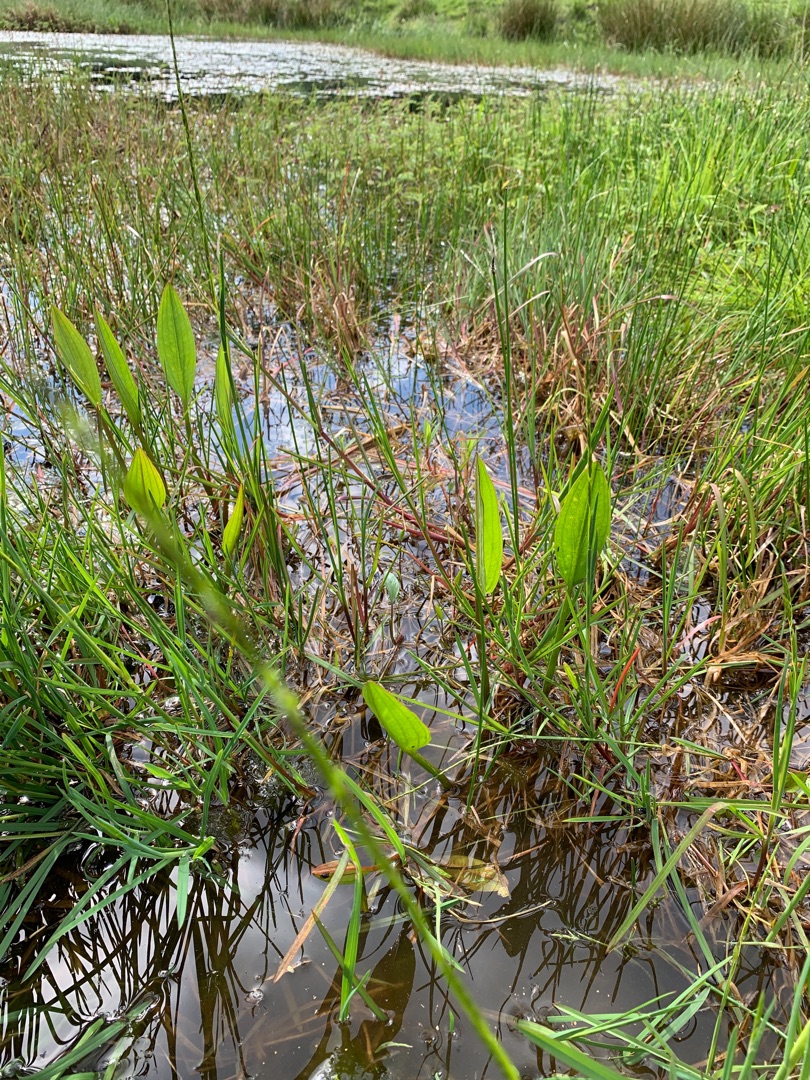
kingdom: Plantae
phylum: Tracheophyta
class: Liliopsida
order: Alismatales
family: Alismataceae
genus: Alisma
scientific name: Alisma plantago-aquatica
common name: Vejbred-skeblad
